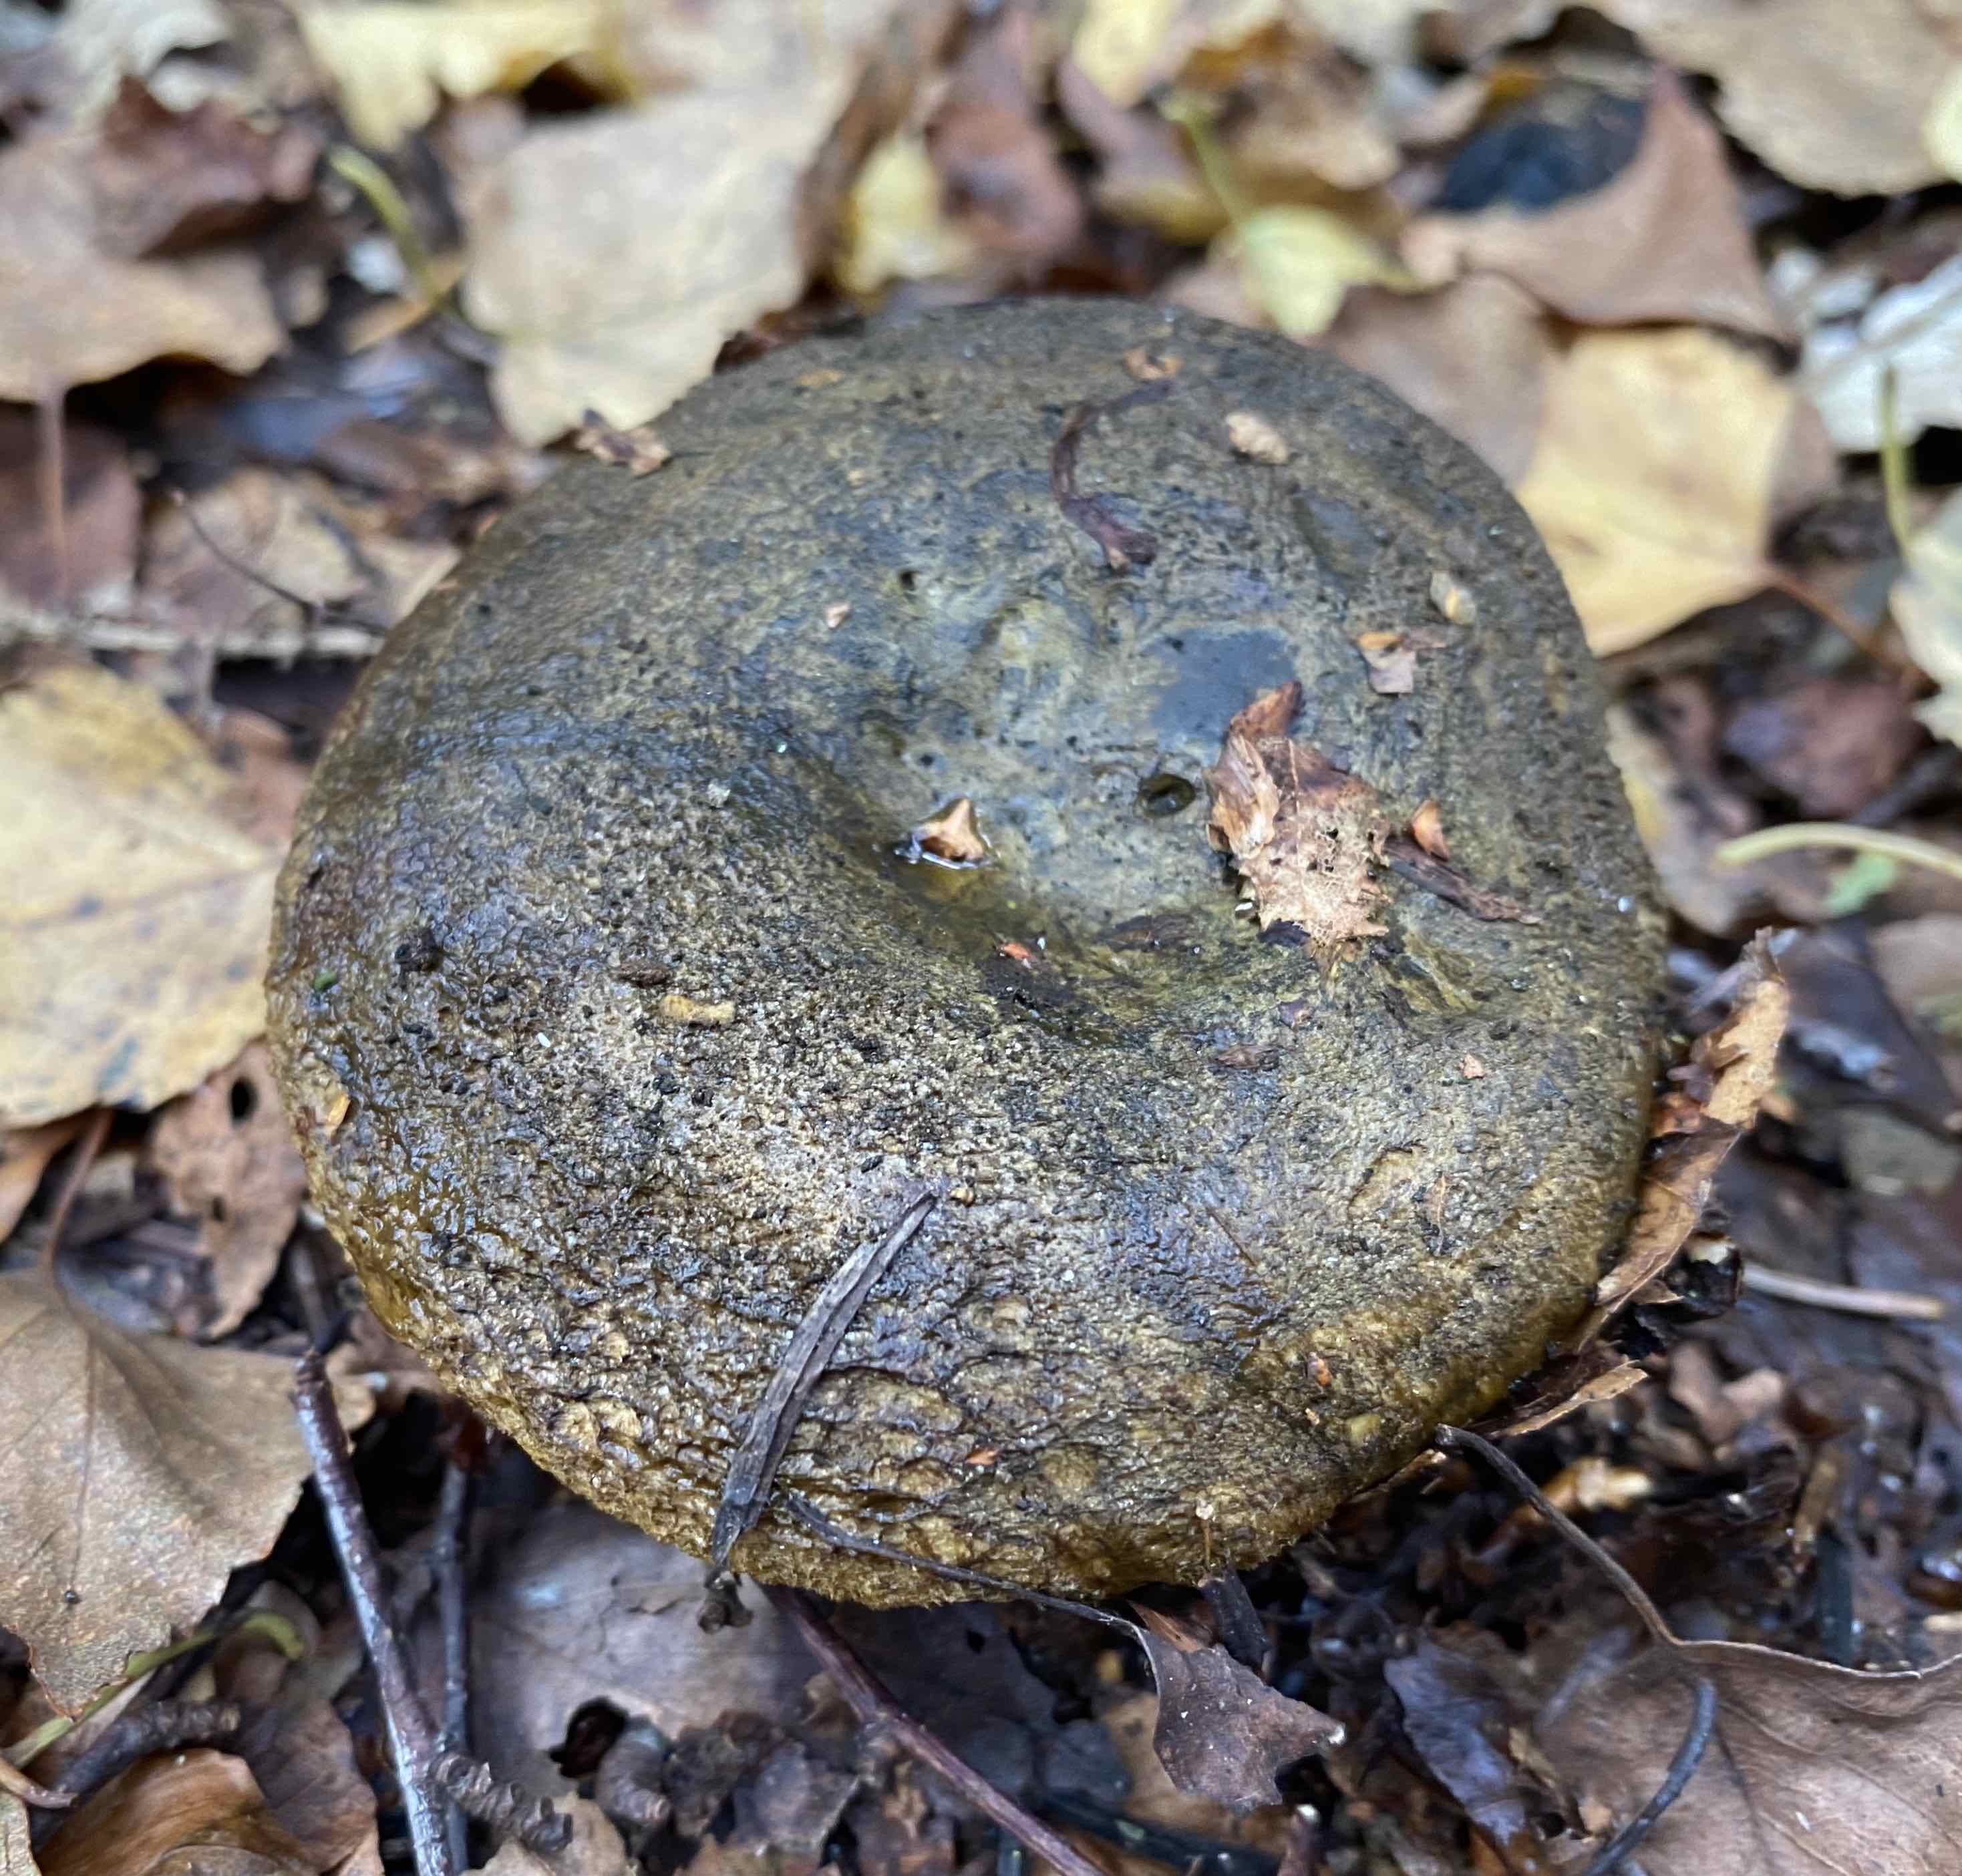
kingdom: Fungi
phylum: Basidiomycota
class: Agaricomycetes
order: Russulales
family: Russulaceae
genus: Lactarius
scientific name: Lactarius necator
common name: manddraber-mælkehat
